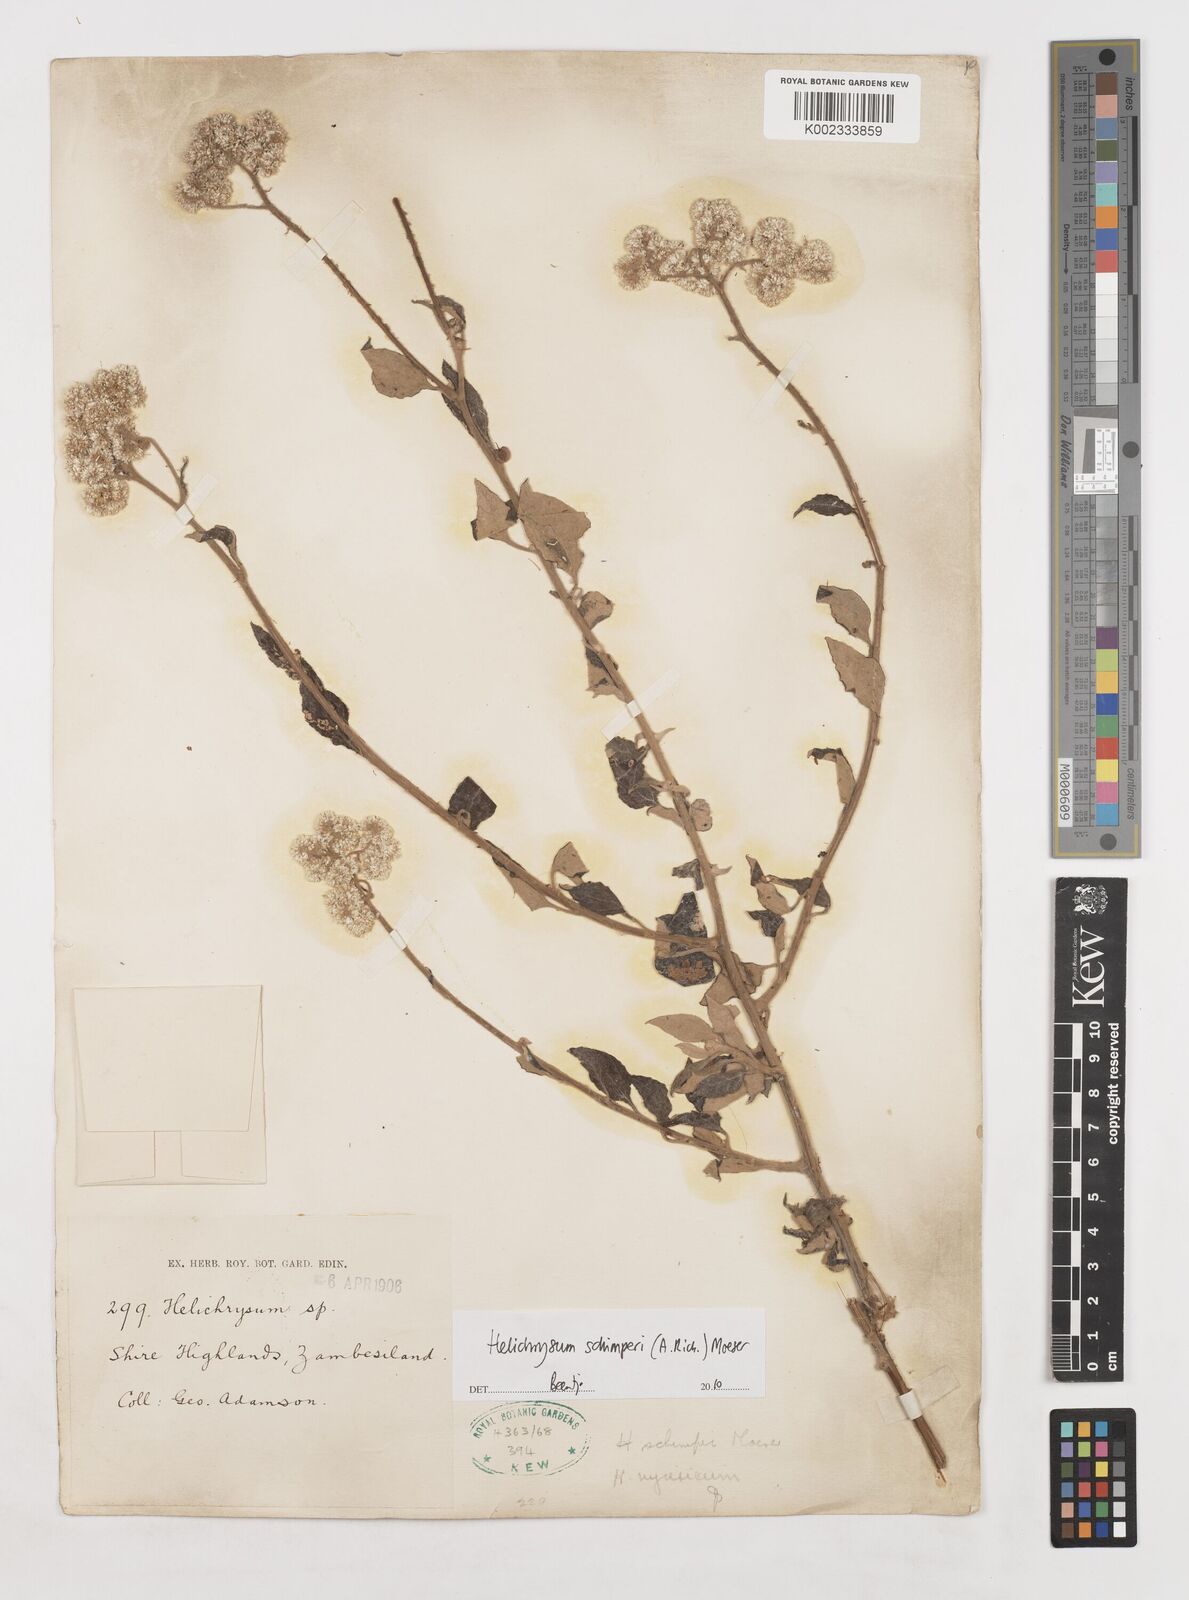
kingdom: Plantae
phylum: Tracheophyta
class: Magnoliopsida
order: Asterales
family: Asteraceae
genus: Helichrysum
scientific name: Helichrysum schimperi
